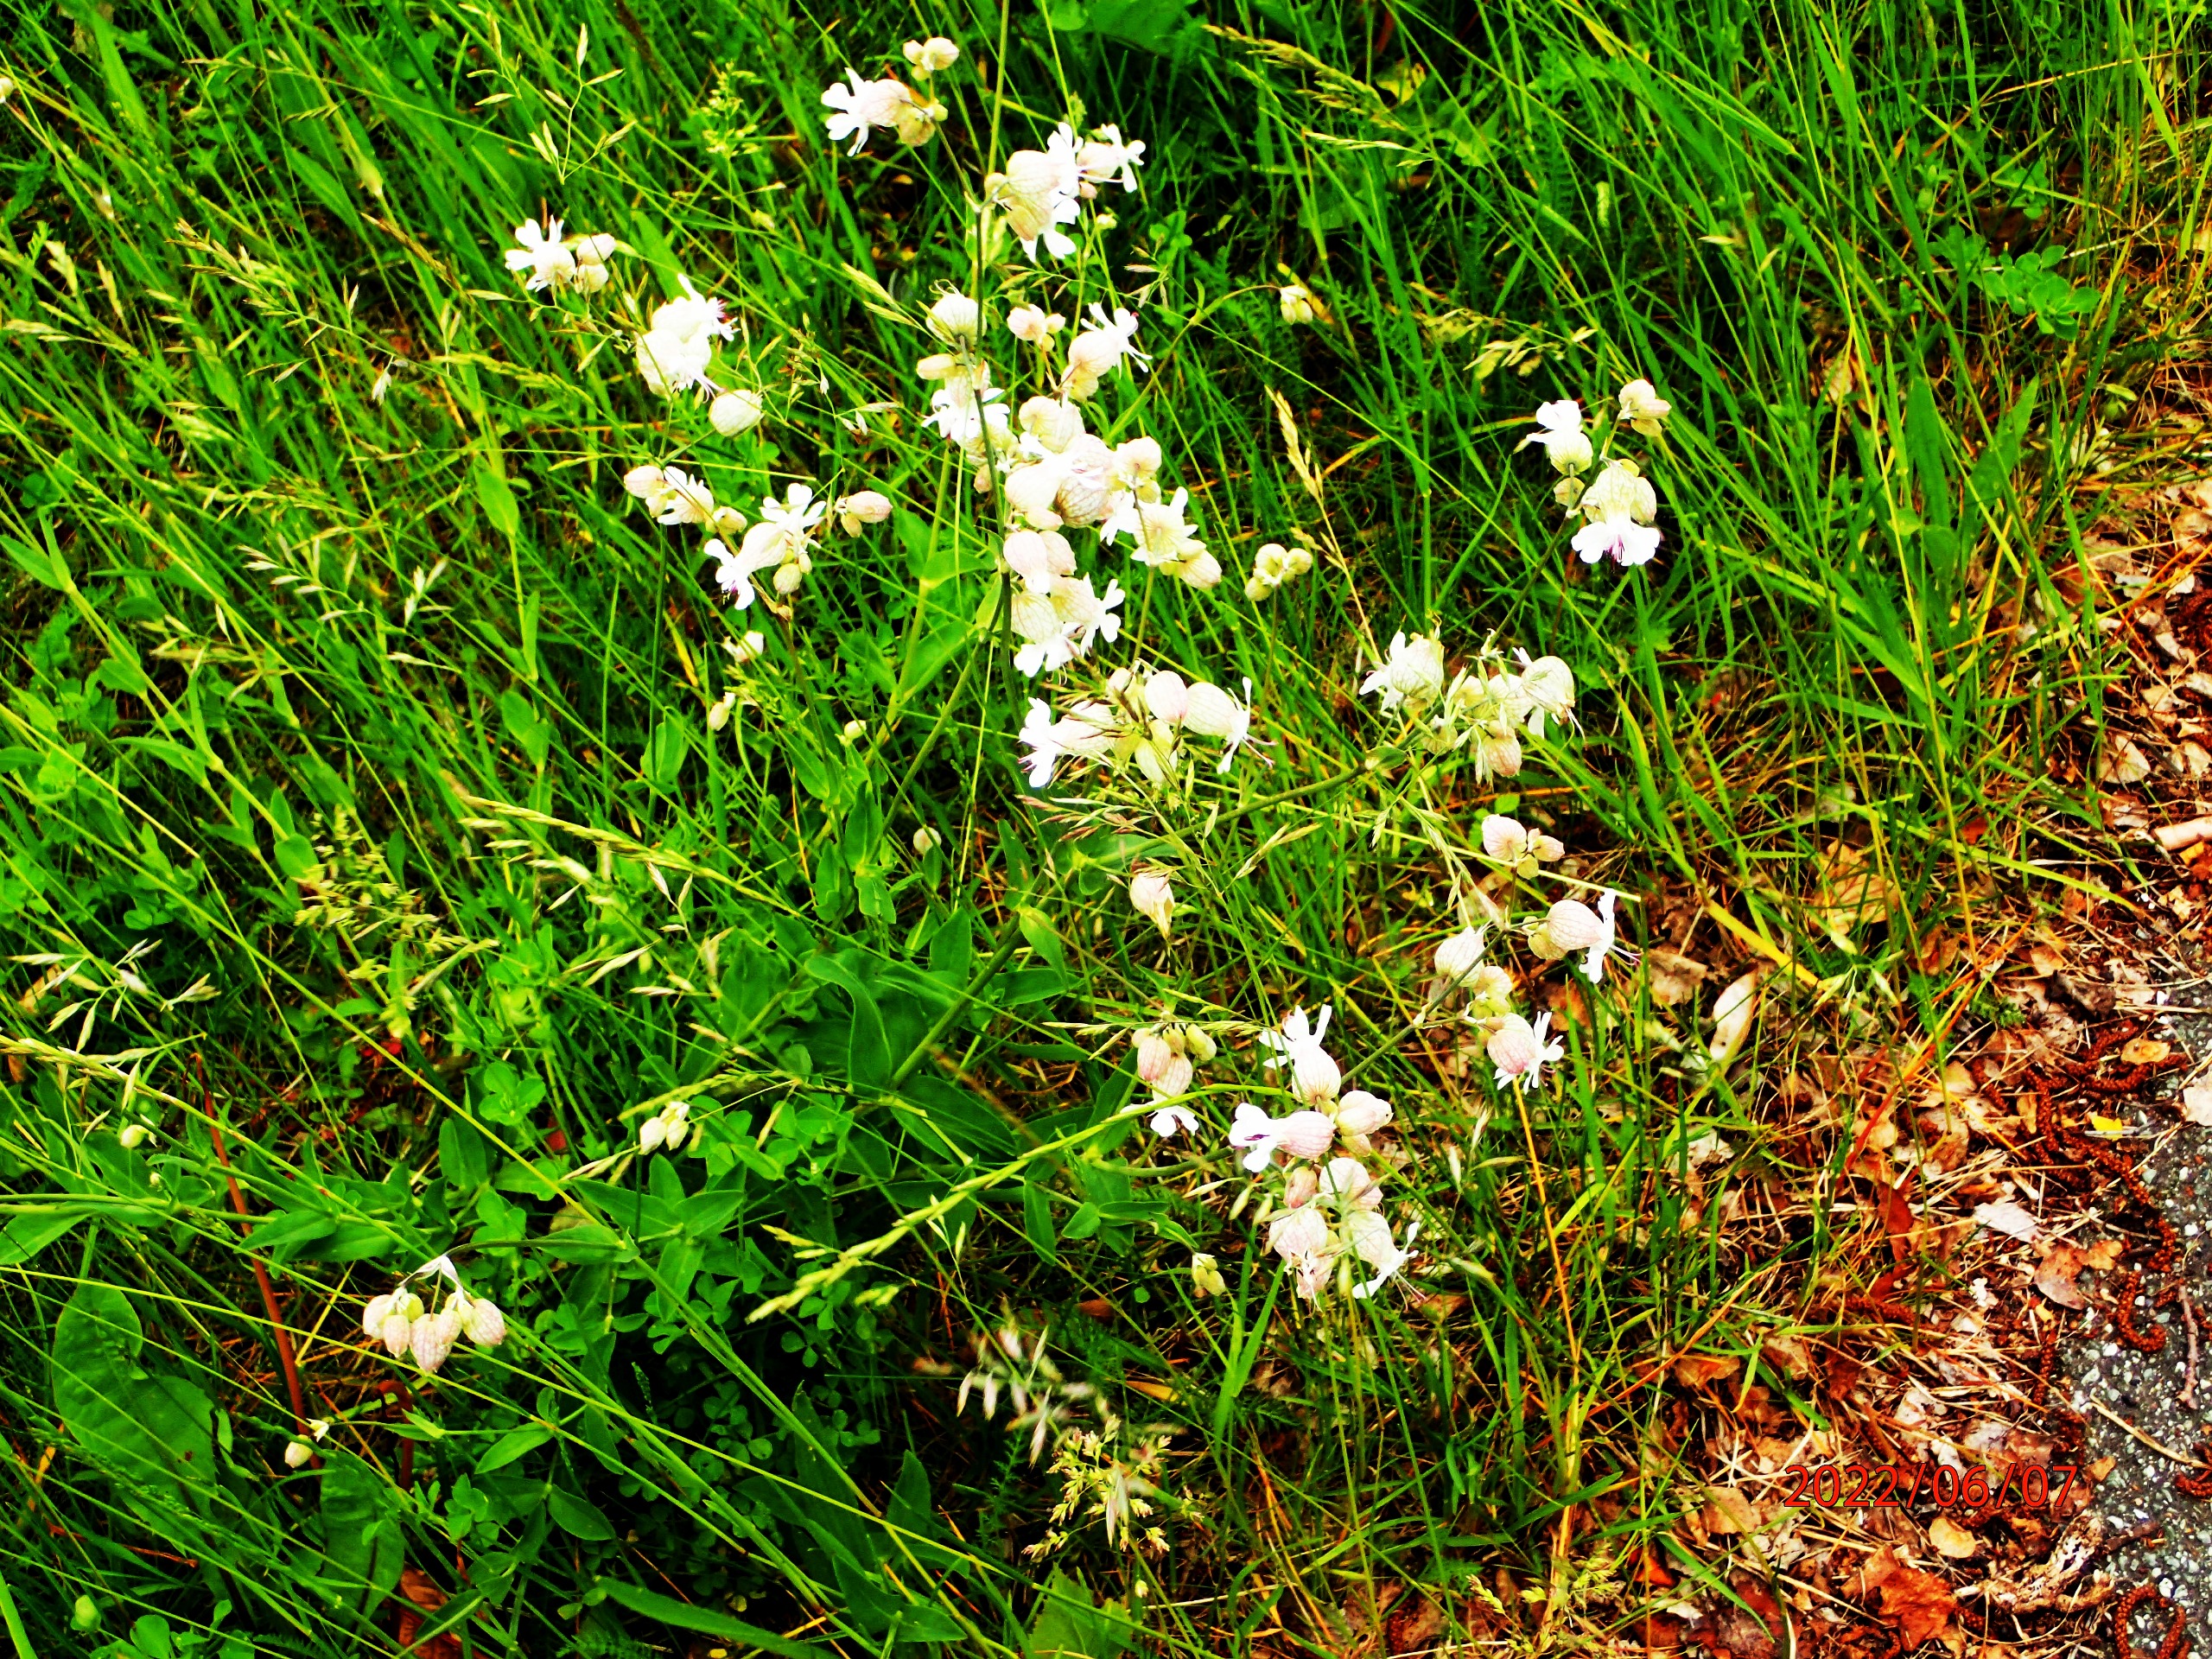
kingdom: Plantae
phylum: Tracheophyta
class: Magnoliopsida
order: Caryophyllales
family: Caryophyllaceae
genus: Silene
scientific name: Silene vulgaris
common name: Blæresmælde
